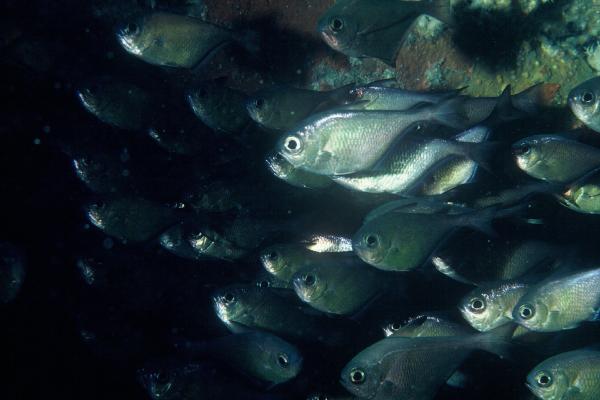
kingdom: Animalia
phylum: Chordata
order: Perciformes
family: Pempheridae
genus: Pempheris
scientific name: Pempheris
